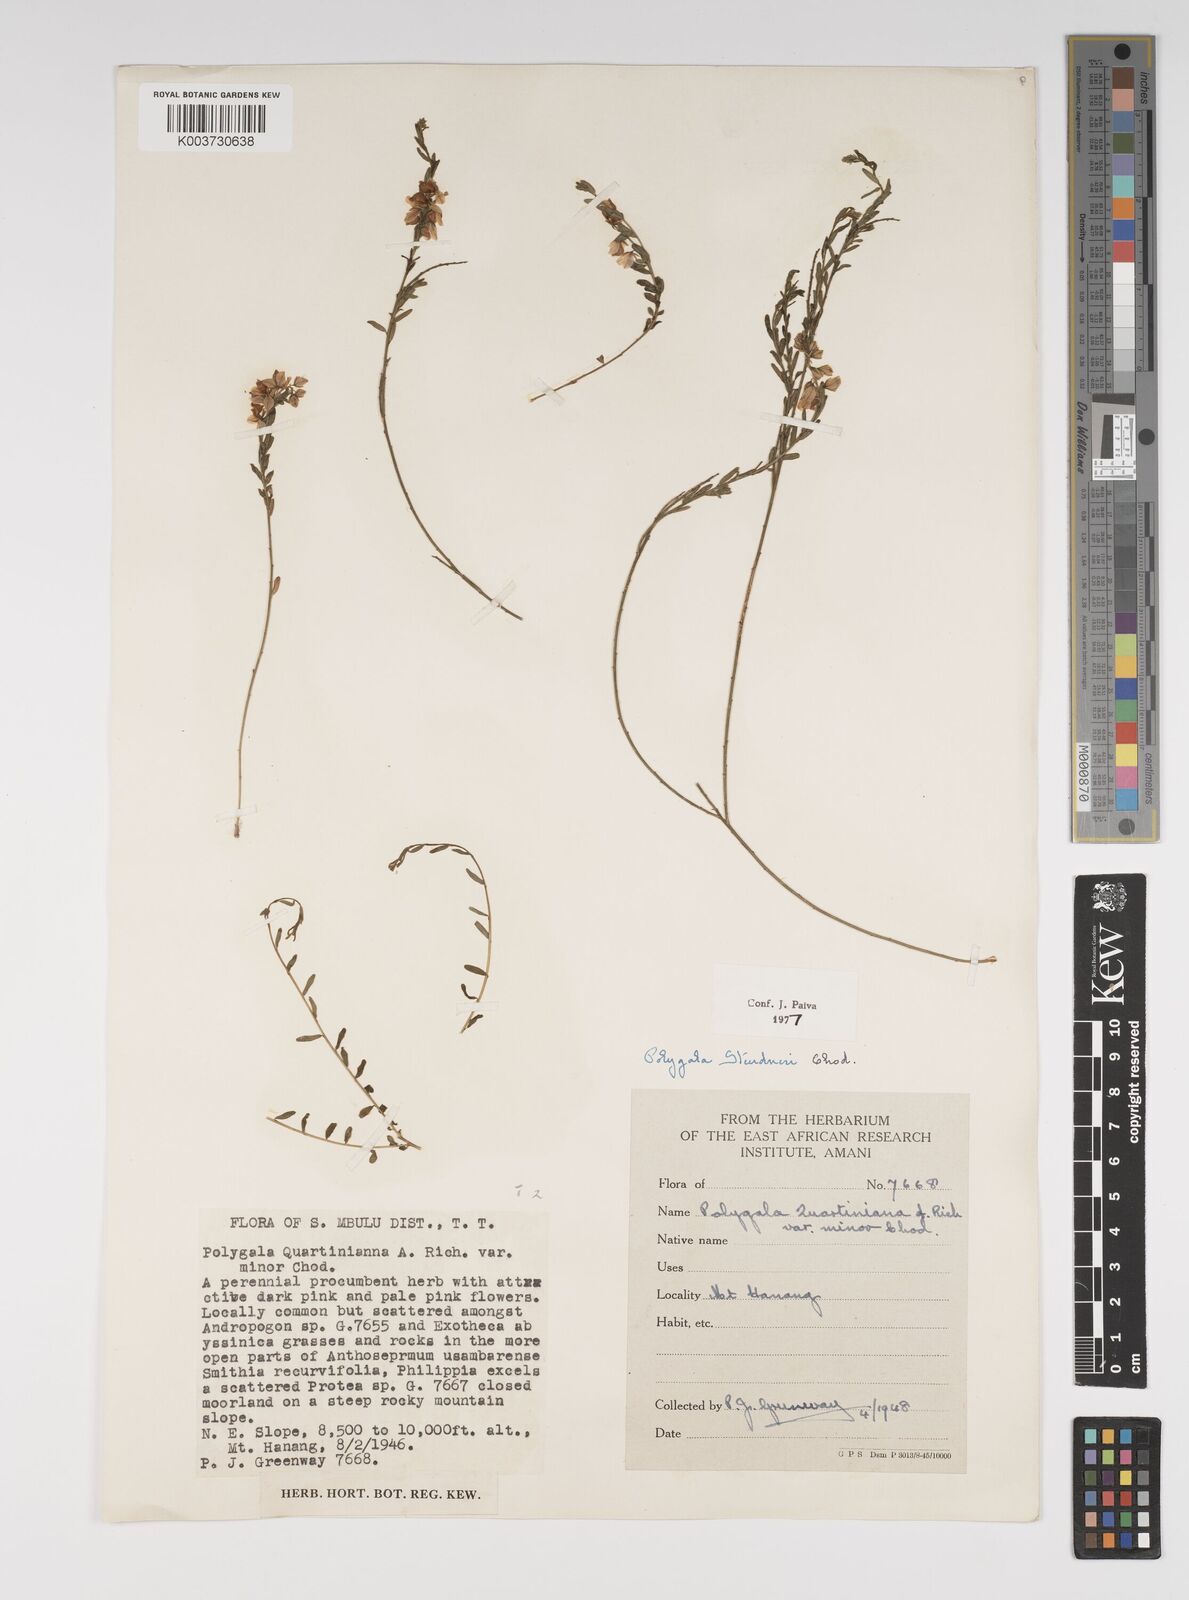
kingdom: Plantae
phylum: Tracheophyta
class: Magnoliopsida
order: Fabales
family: Polygalaceae
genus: Polygala
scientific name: Polygala steudneri
